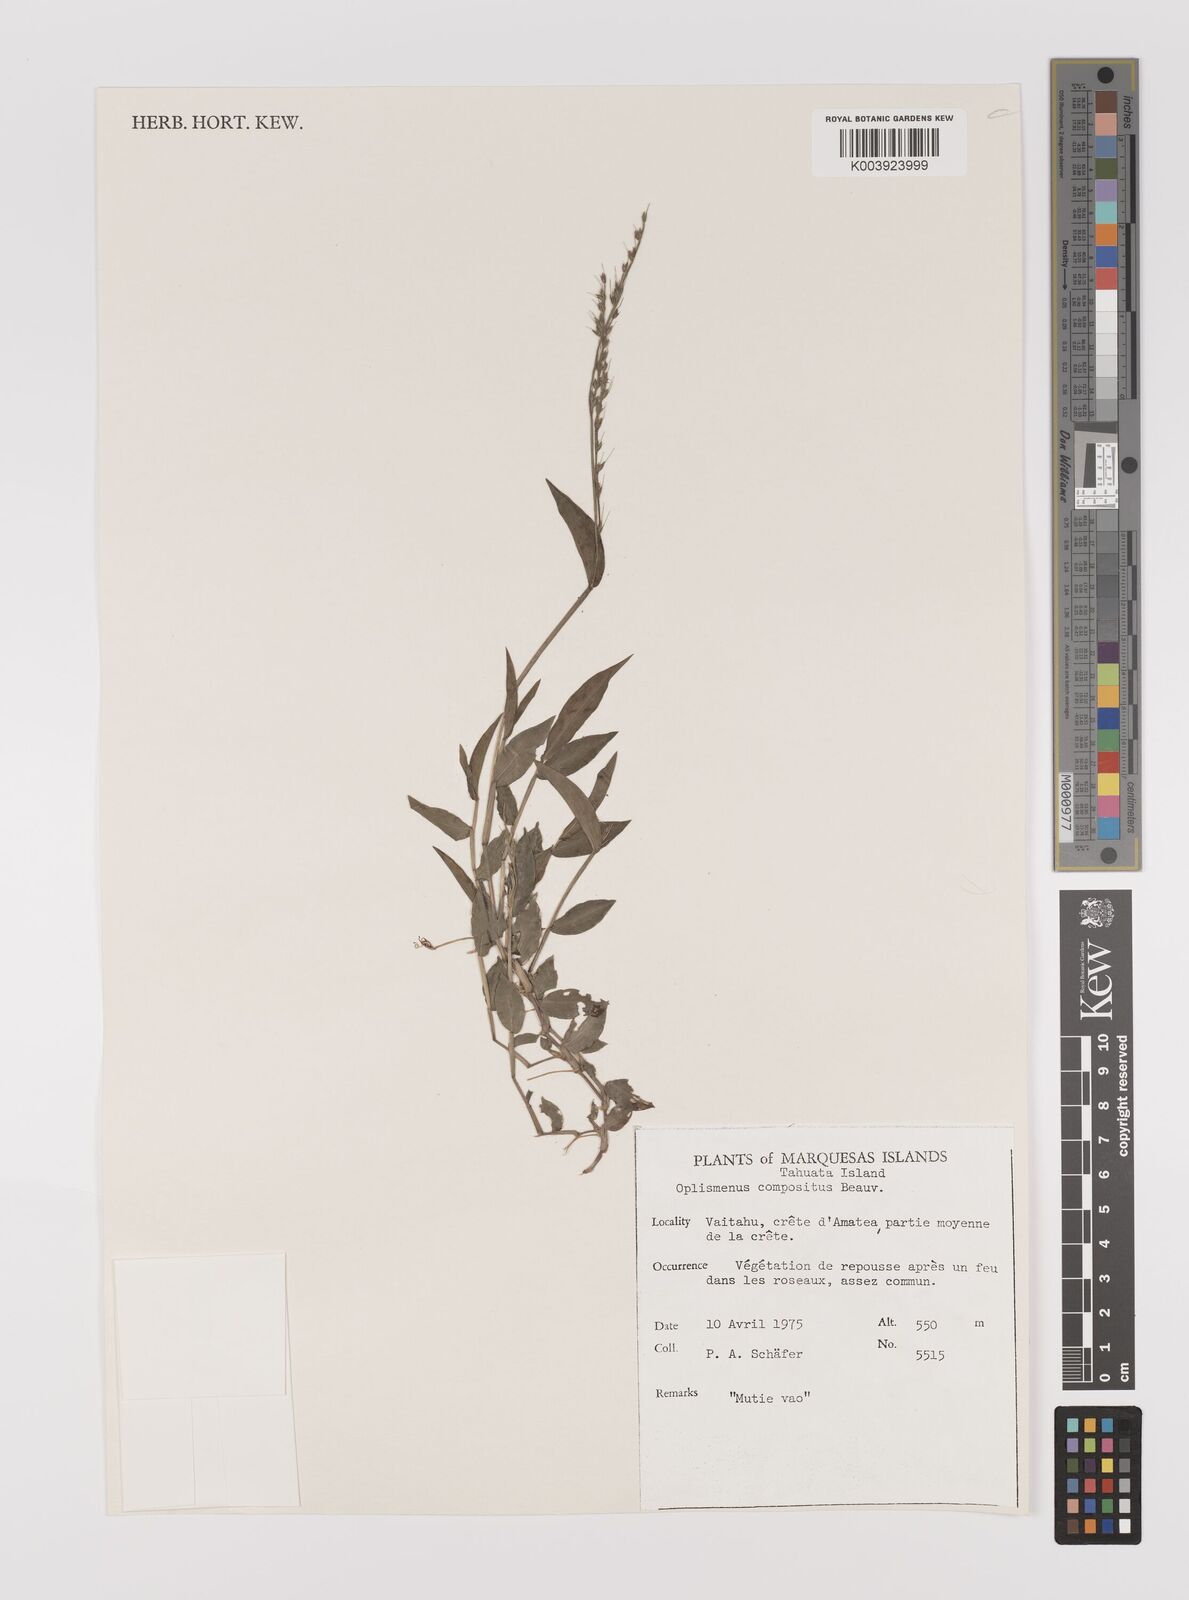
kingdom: Plantae
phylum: Tracheophyta
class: Liliopsida
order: Poales
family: Poaceae
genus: Oplismenus
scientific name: Oplismenus compositus
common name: Running mountain grass
